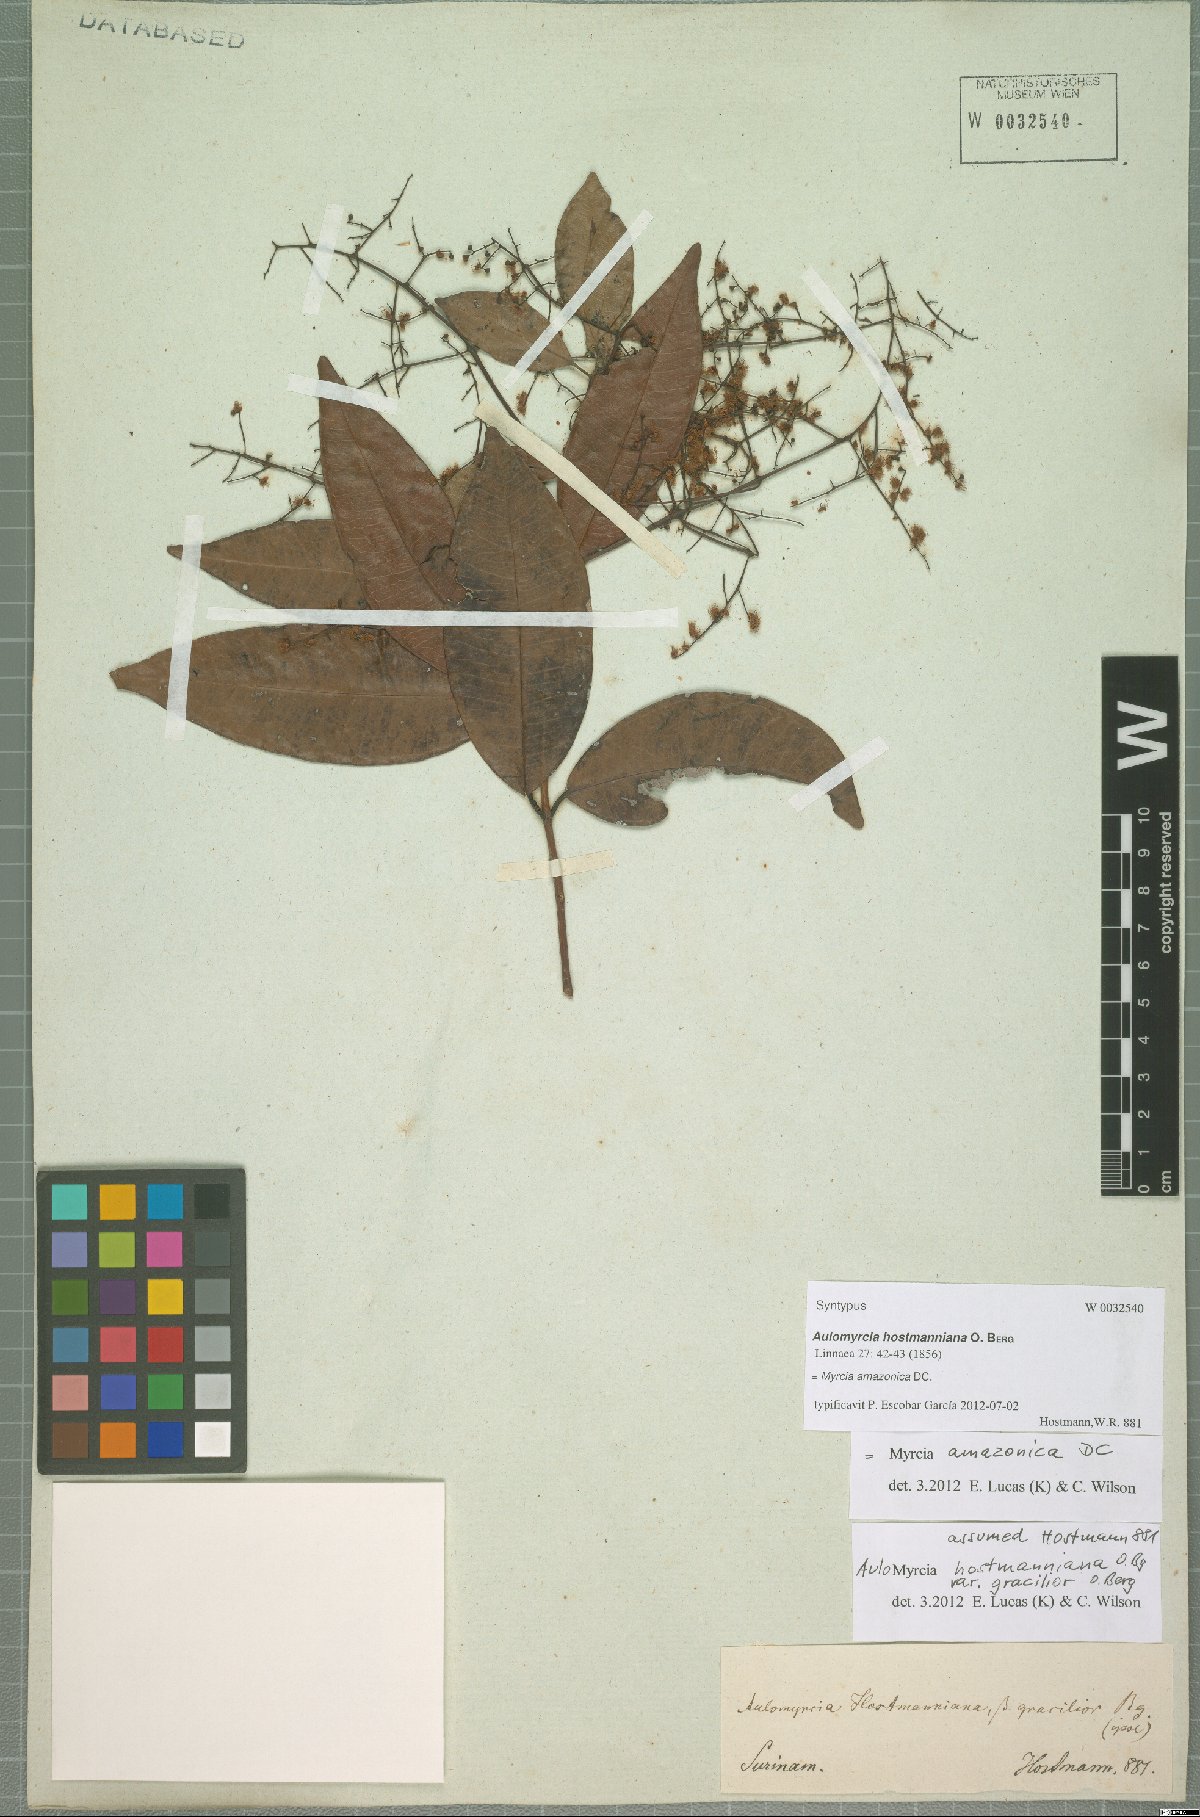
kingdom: Plantae
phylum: Tracheophyta
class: Magnoliopsida
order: Myrtales
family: Myrtaceae
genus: Myrcia
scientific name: Myrcia amazonica
